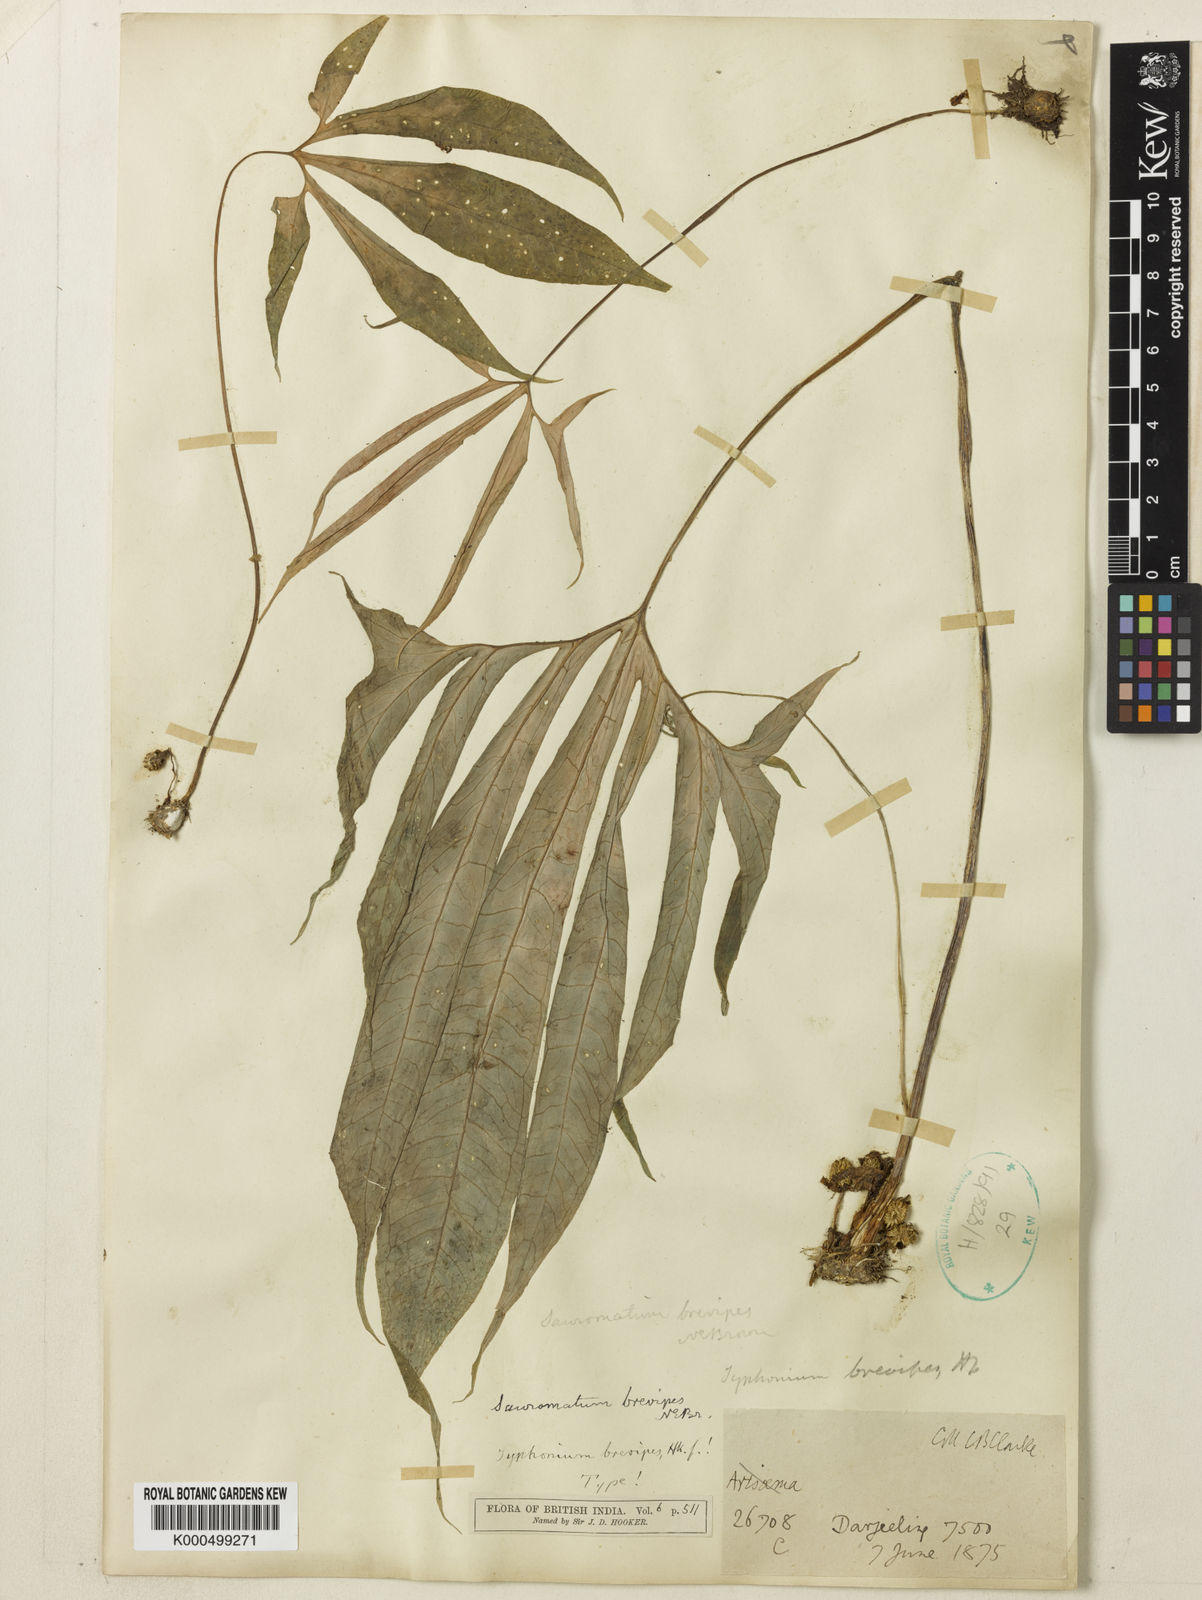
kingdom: Plantae
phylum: Tracheophyta
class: Liliopsida
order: Alismatales
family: Araceae
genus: Sauromatum
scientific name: Sauromatum brevipes
